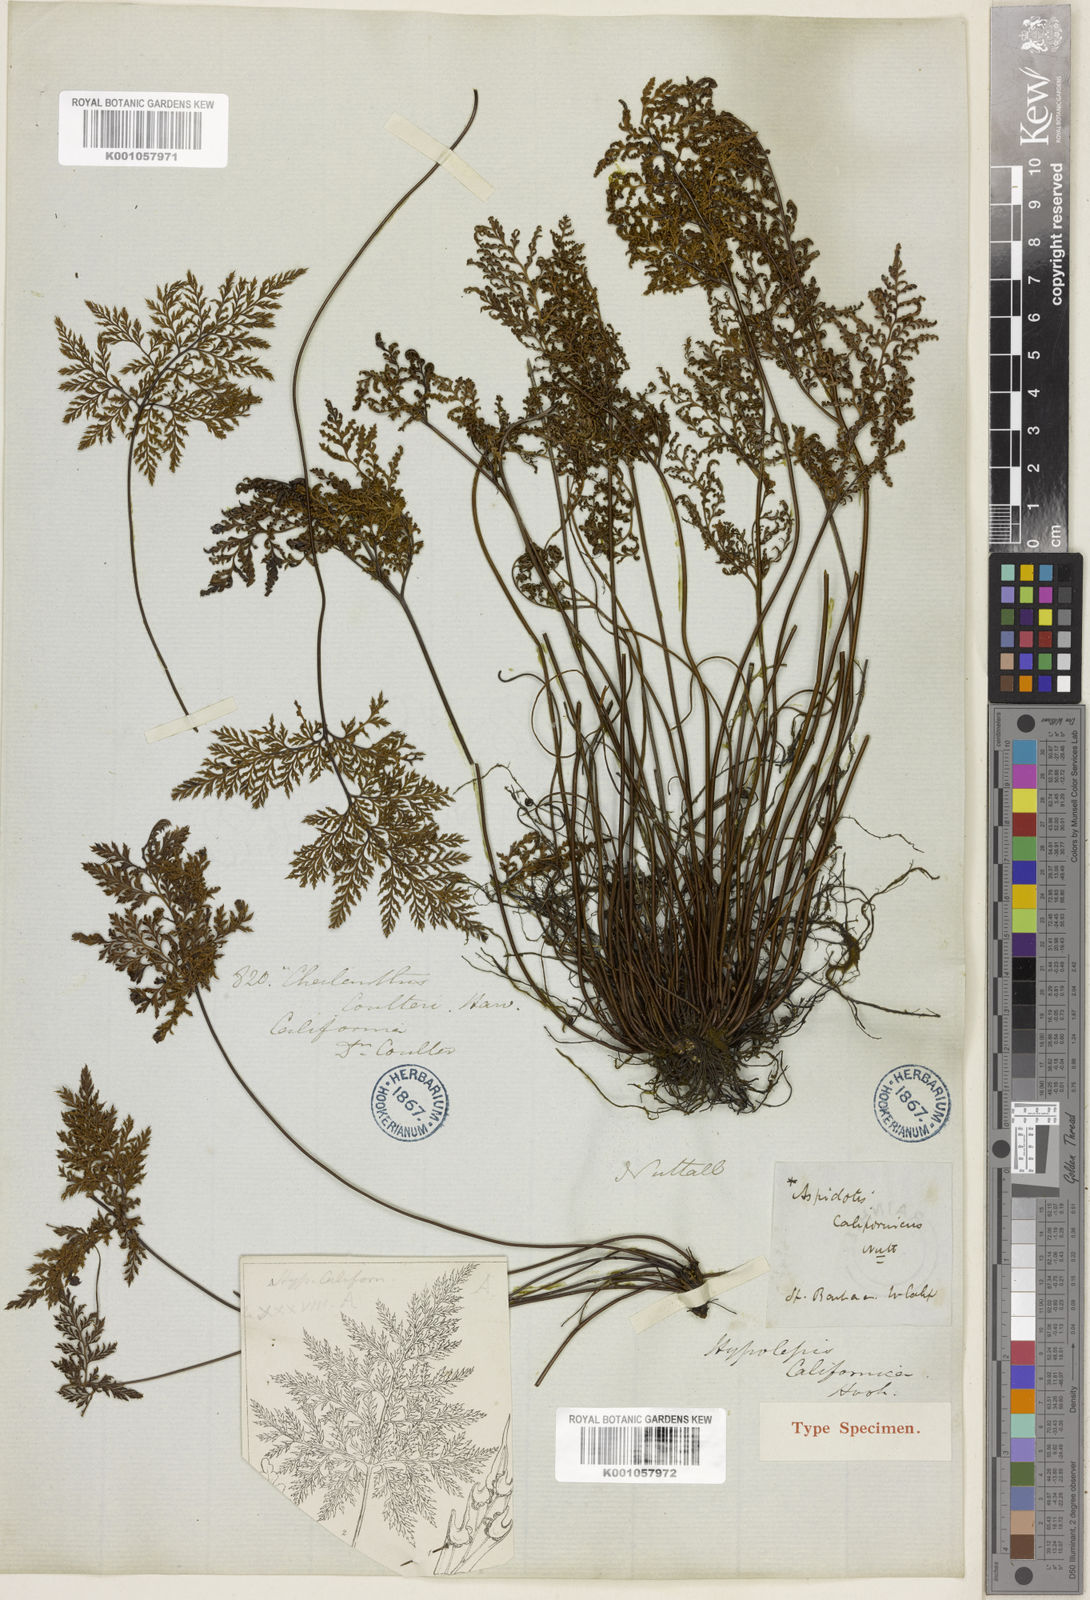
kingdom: Plantae
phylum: Tracheophyta
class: Polypodiopsida
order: Polypodiales
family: Pteridaceae
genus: Aspidotis
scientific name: Aspidotis californica
